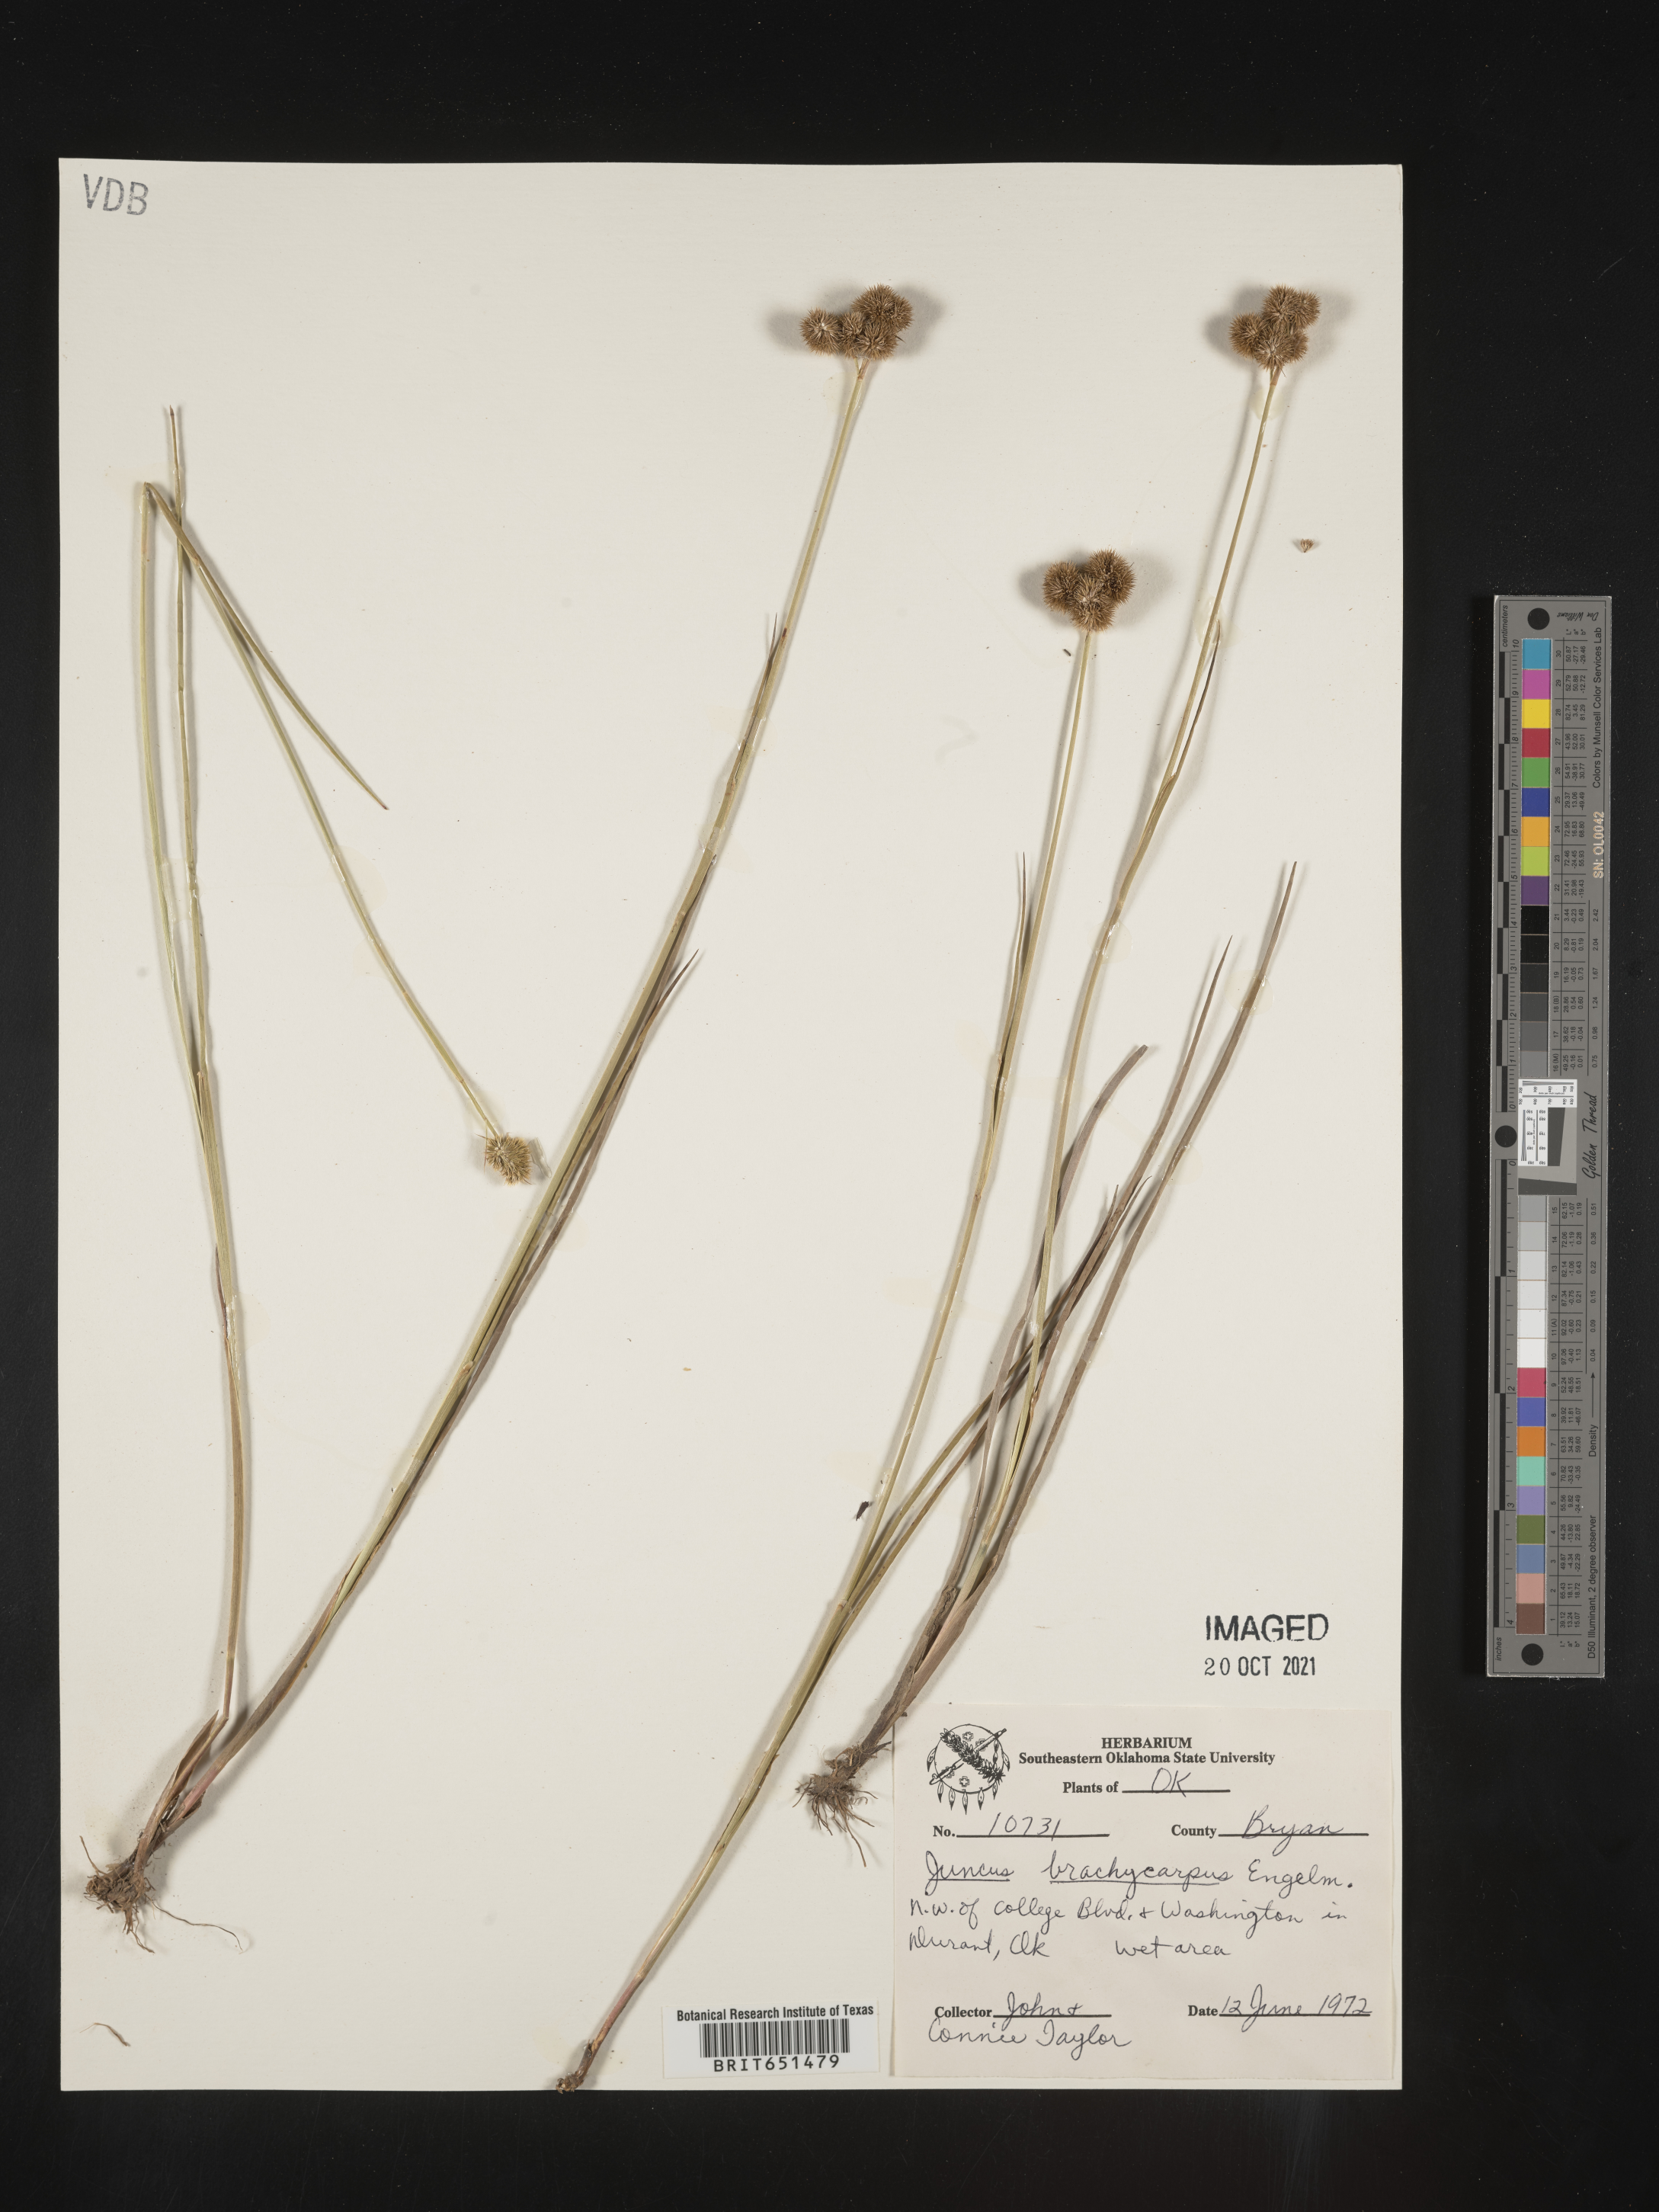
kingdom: Plantae
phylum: Tracheophyta
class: Liliopsida
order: Poales
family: Juncaceae
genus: Juncus
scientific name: Juncus brachycarpus
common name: Shore rush
